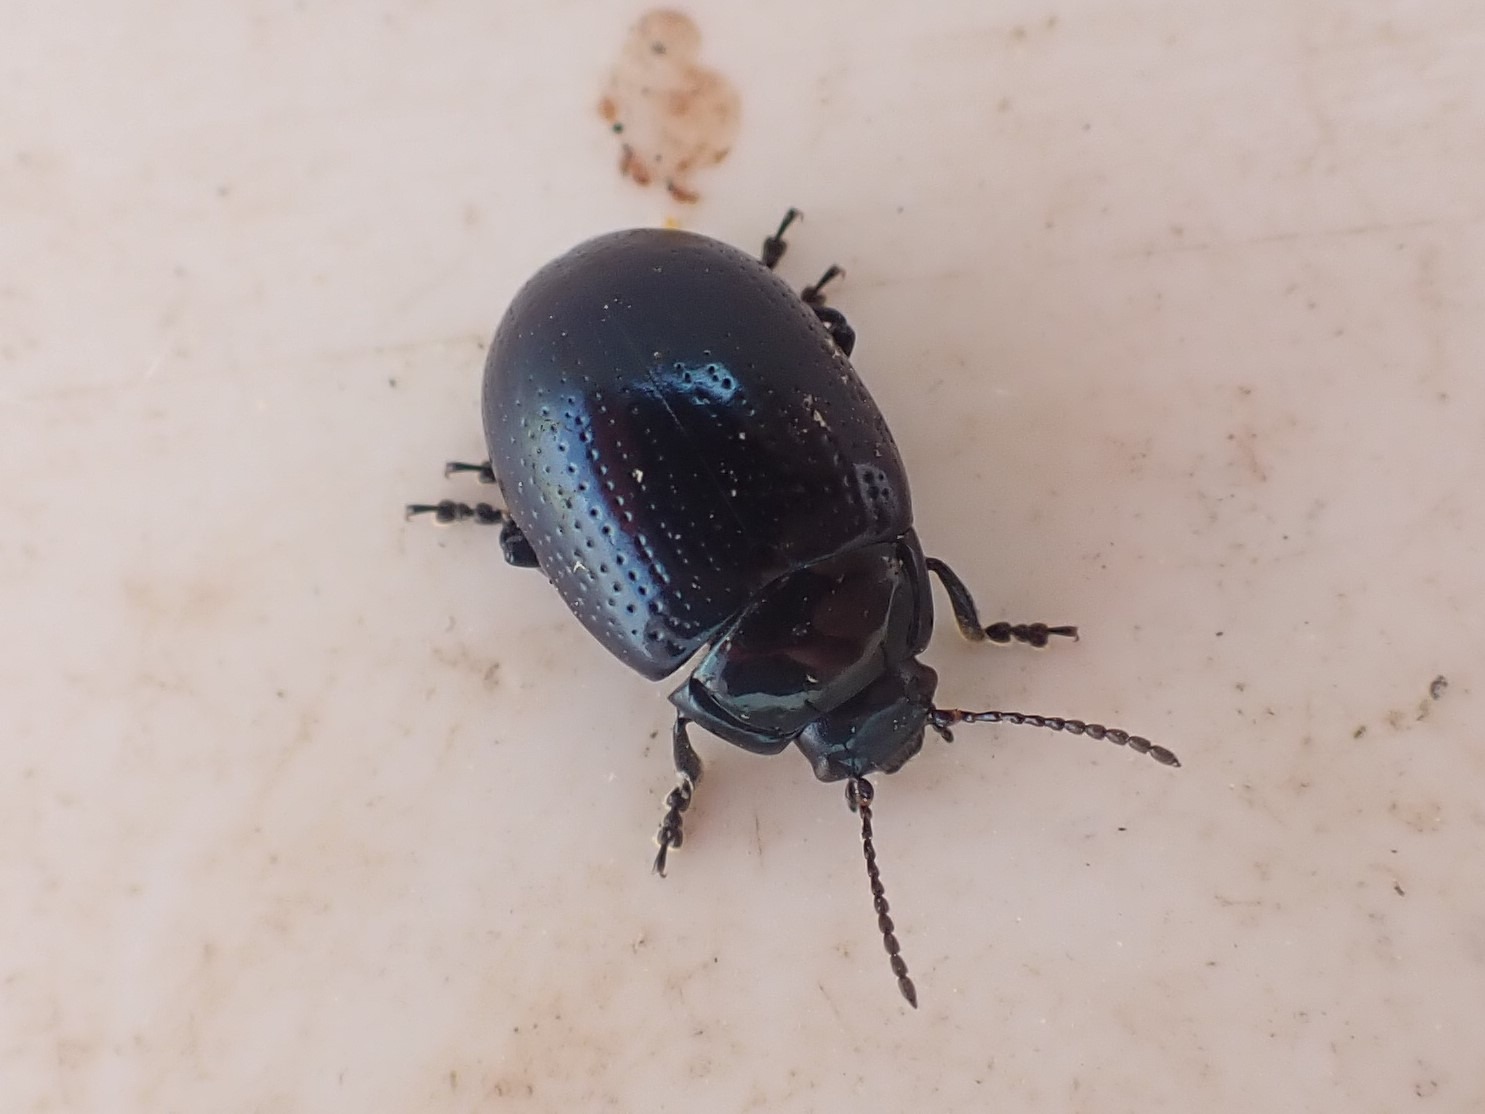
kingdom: Animalia
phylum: Arthropoda
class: Insecta
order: Coleoptera
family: Chrysomelidae
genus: Chrysolina
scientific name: Chrysolina oricalcia
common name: Rækkepunkteret guldbille
